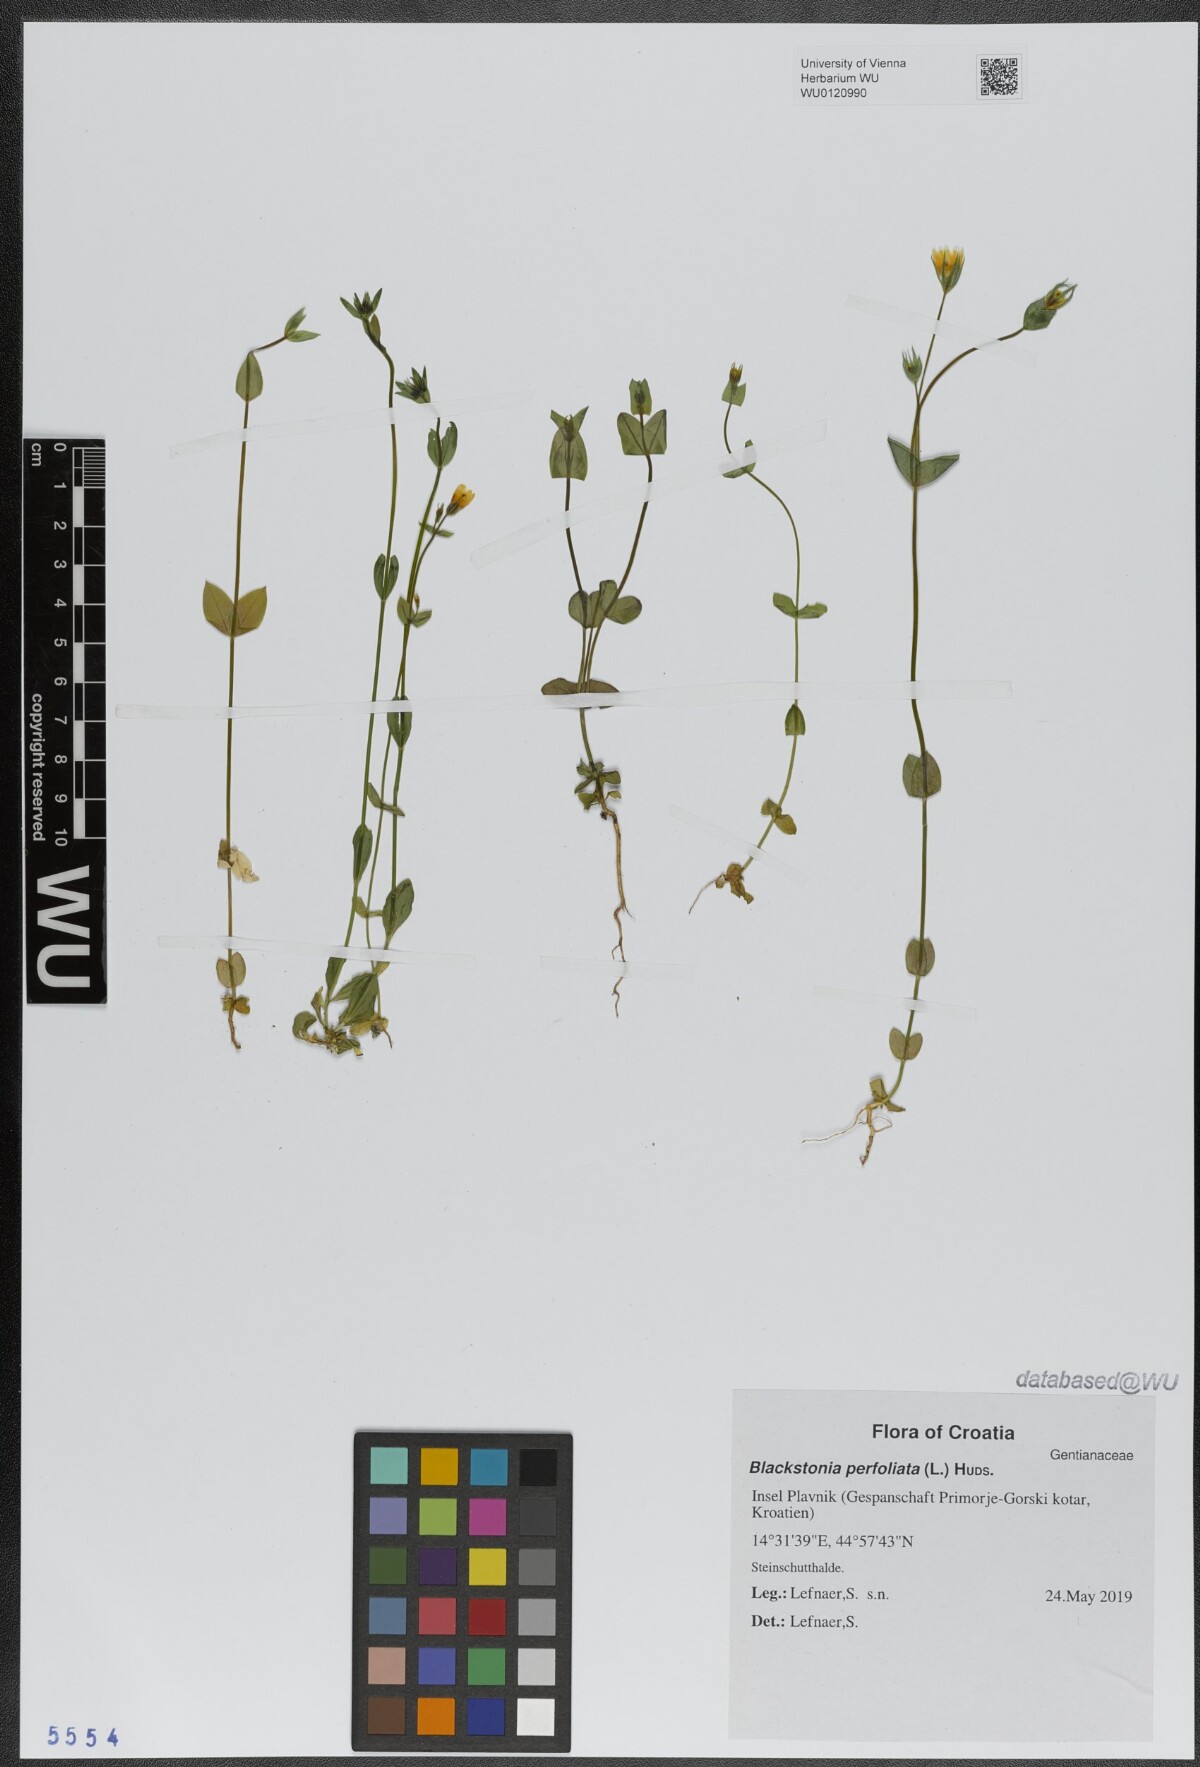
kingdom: Plantae
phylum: Tracheophyta
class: Magnoliopsida
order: Gentianales
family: Gentianaceae
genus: Blackstonia
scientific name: Blackstonia perfoliata
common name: Yellow-wort
